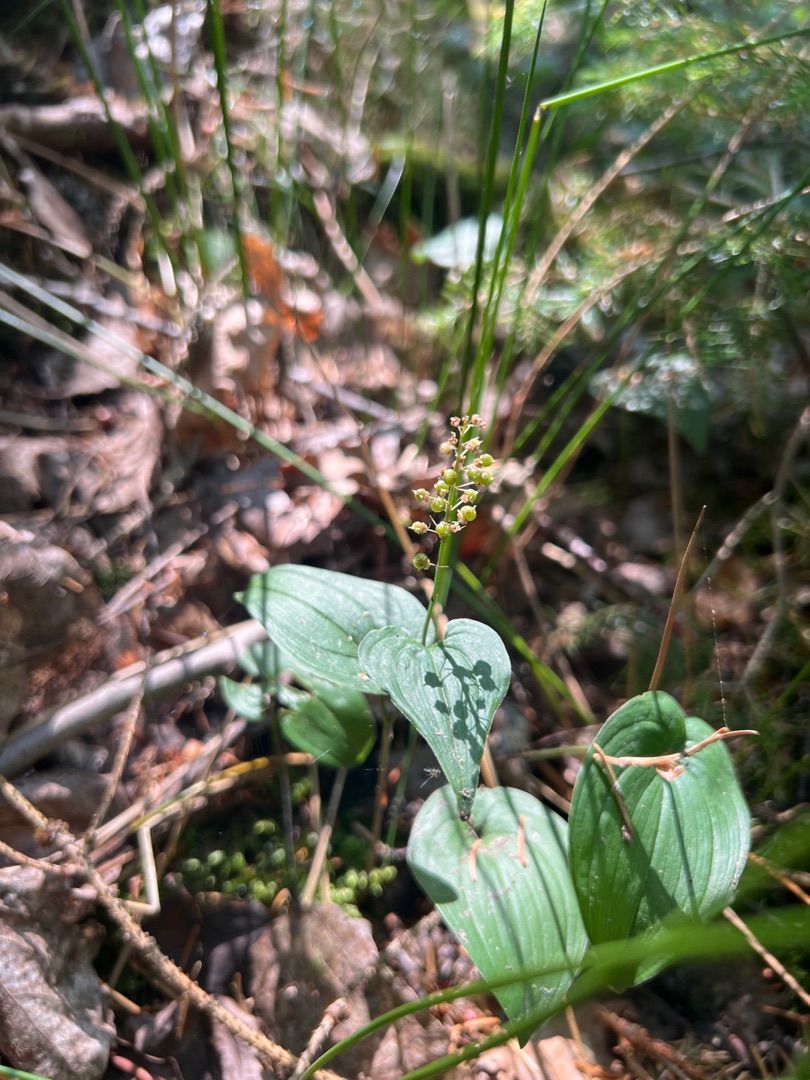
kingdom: Plantae
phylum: Tracheophyta
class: Liliopsida
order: Asparagales
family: Asparagaceae
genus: Maianthemum
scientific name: Maianthemum bifolium
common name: Majblomst
